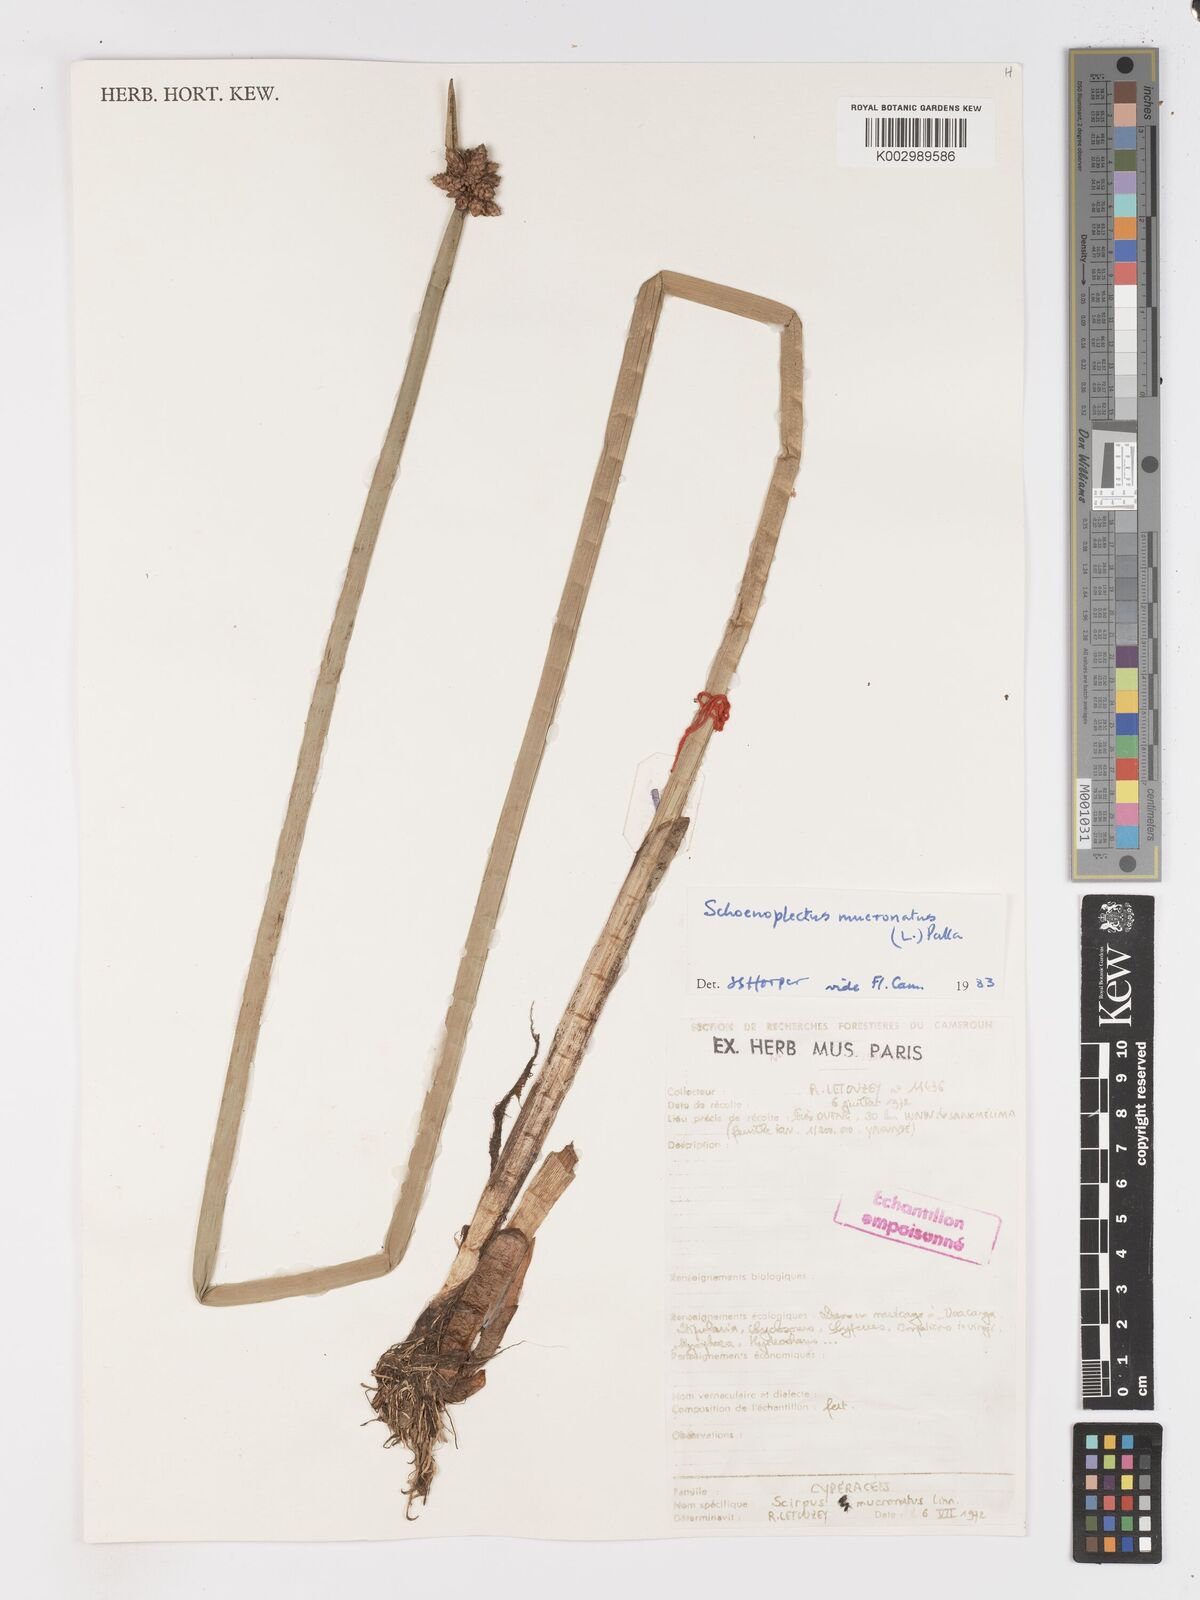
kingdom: Plantae
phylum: Tracheophyta
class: Liliopsida
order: Poales
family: Cyperaceae
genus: Schoenoplectiella
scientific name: Schoenoplectiella mucronata
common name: Bog bulrush
